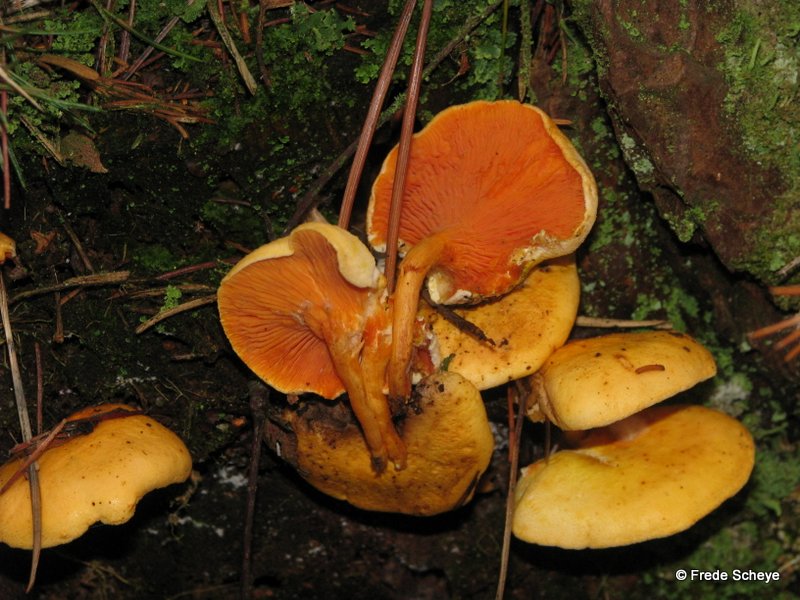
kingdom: Fungi
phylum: Basidiomycota
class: Agaricomycetes
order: Boletales
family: Hygrophoropsidaceae
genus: Hygrophoropsis
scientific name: Hygrophoropsis aurantiaca
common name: almindelig orangekantarel
